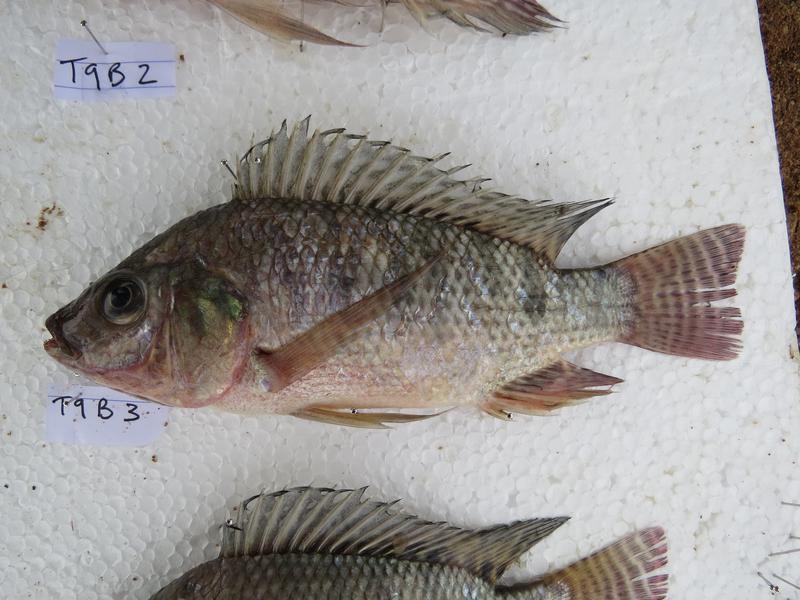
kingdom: Animalia
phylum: Chordata
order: Perciformes
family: Cichlidae
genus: Oreochromis
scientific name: Oreochromis niloticus
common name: Nile tilapia
